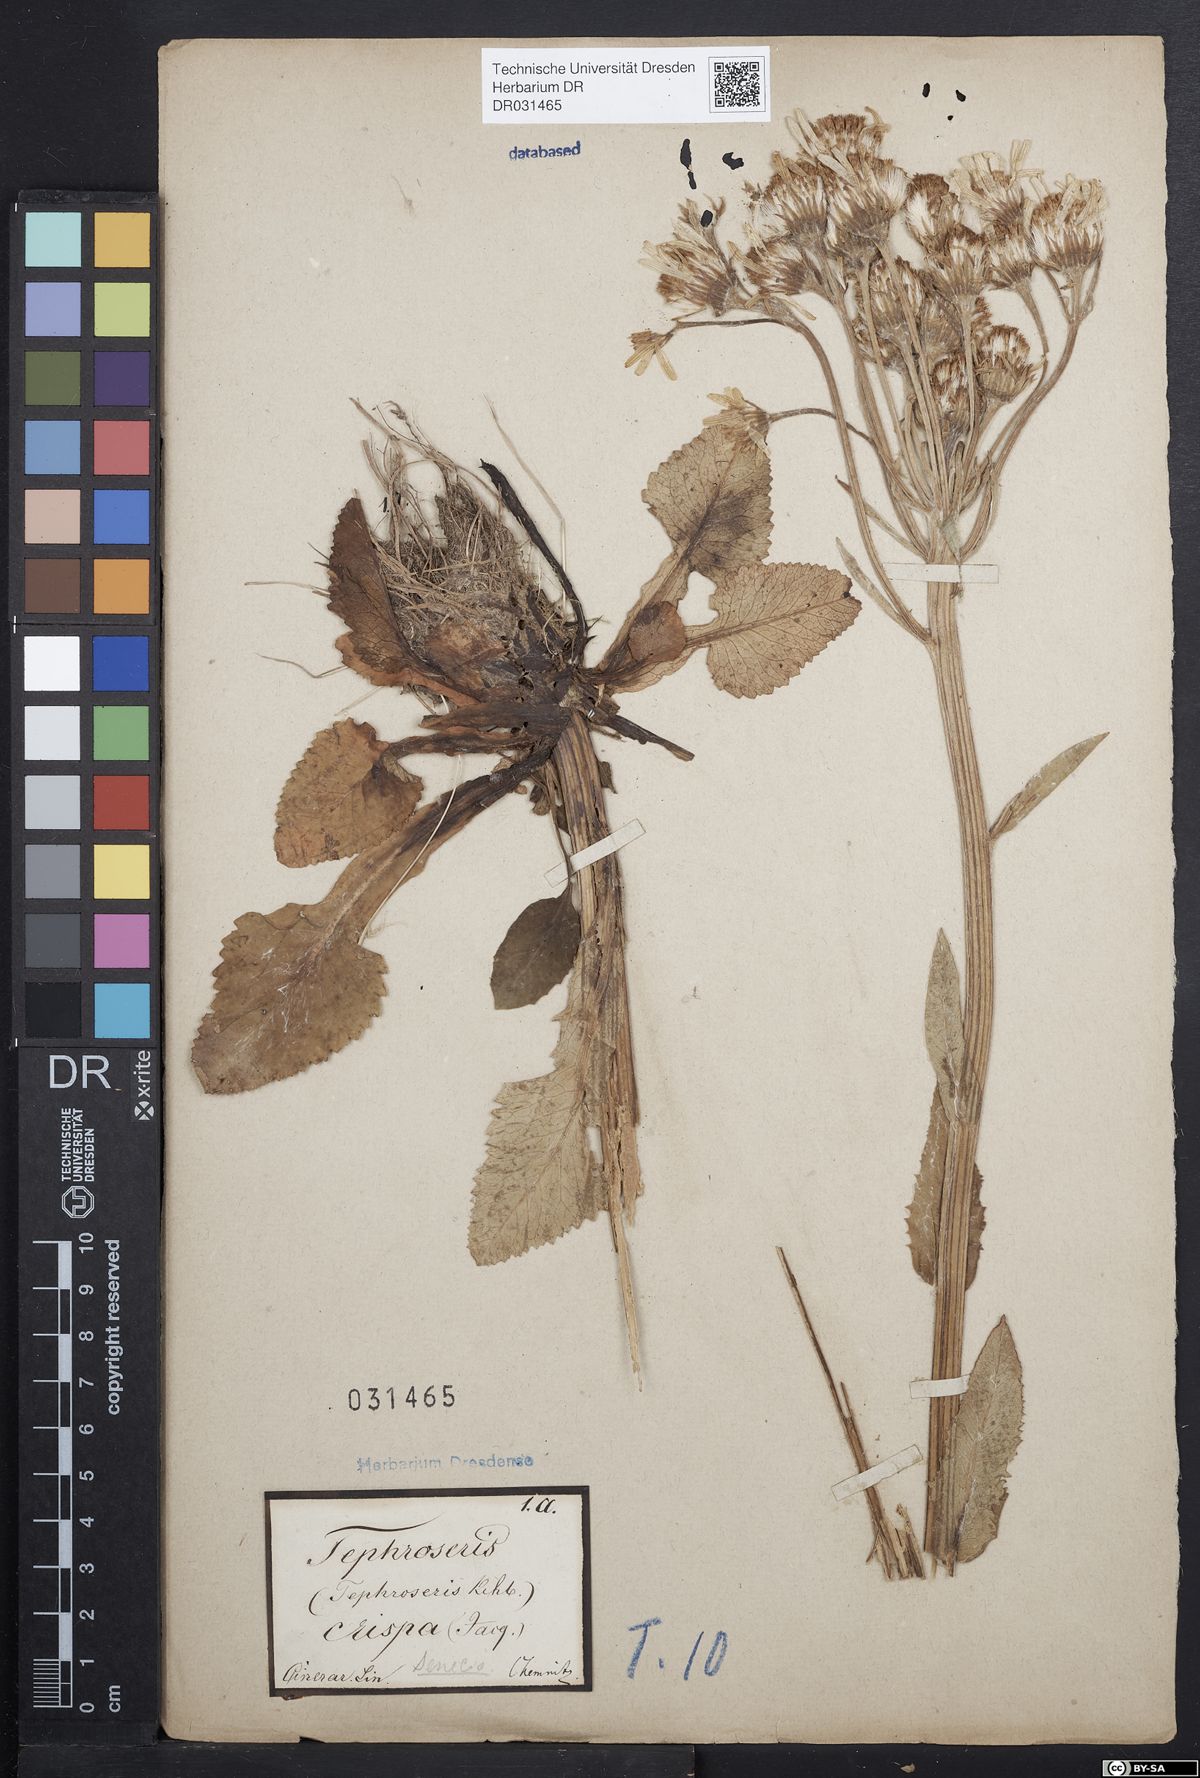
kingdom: Plantae
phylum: Tracheophyta
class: Magnoliopsida
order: Asterales
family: Asteraceae
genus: Tephroseris
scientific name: Tephroseris crispa
